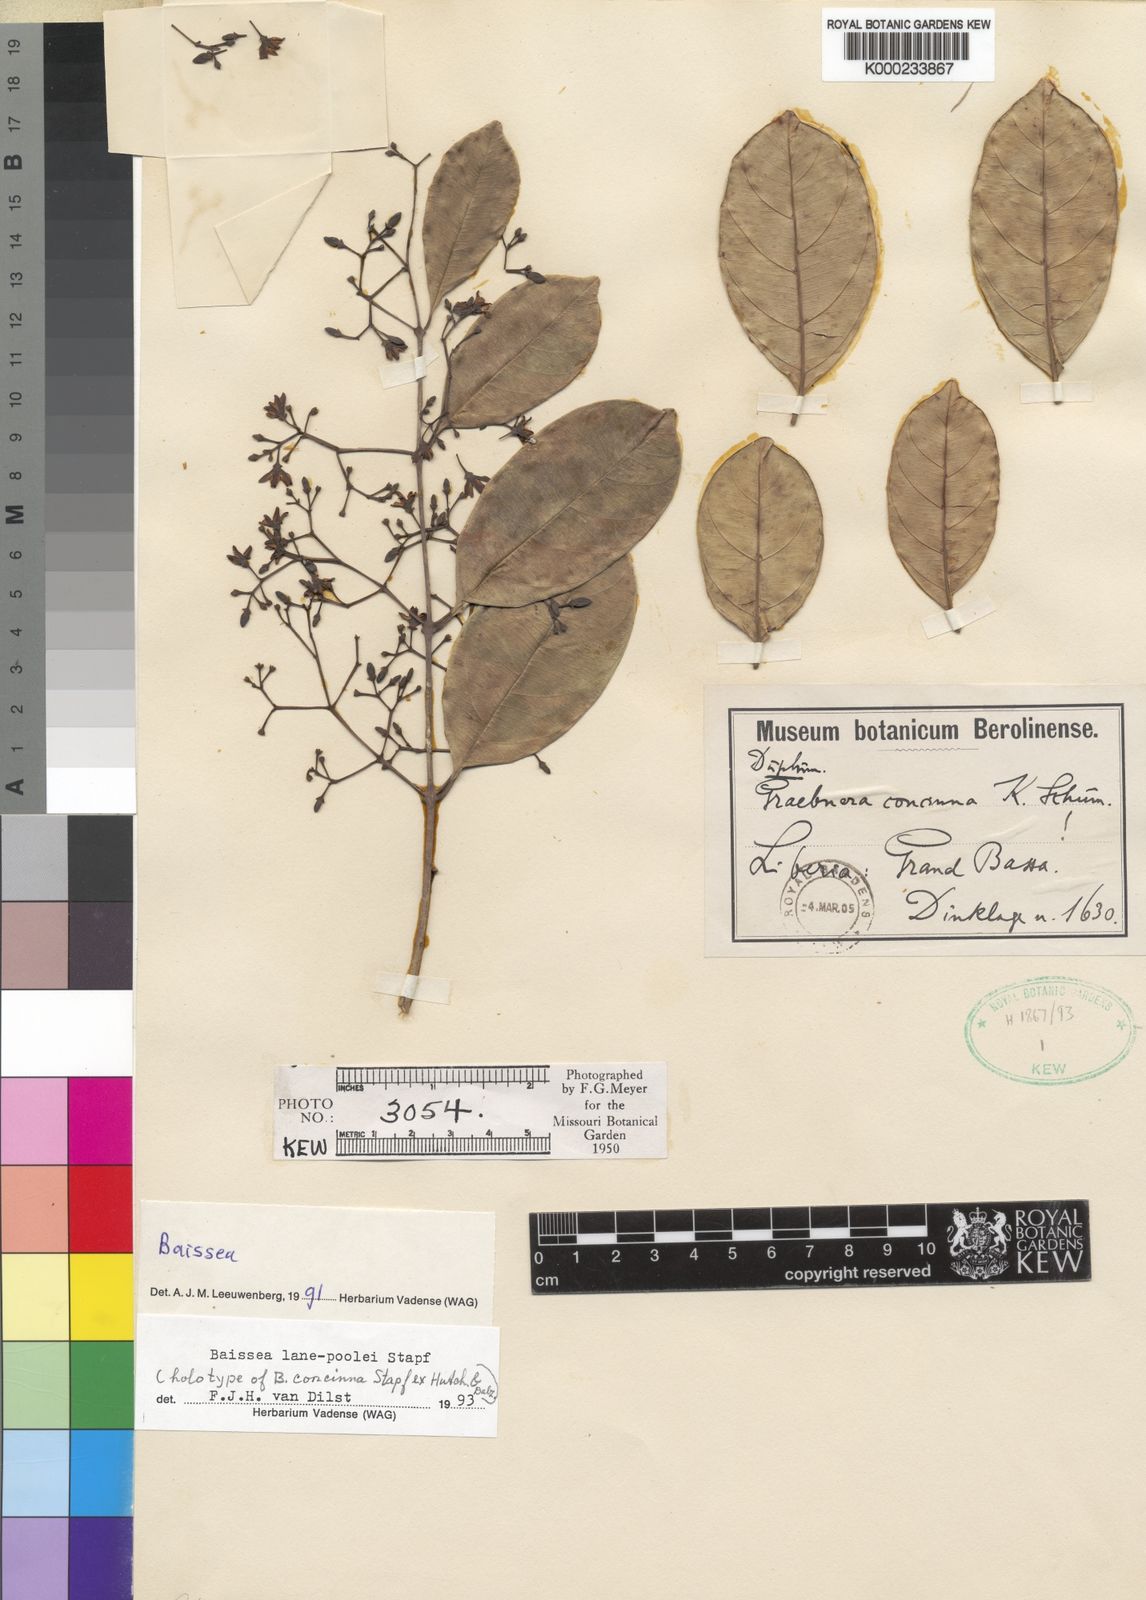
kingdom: Plantae
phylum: Tracheophyta
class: Magnoliopsida
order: Gentianales
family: Apocynaceae
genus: Baissea
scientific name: Baissea lane-poolei
